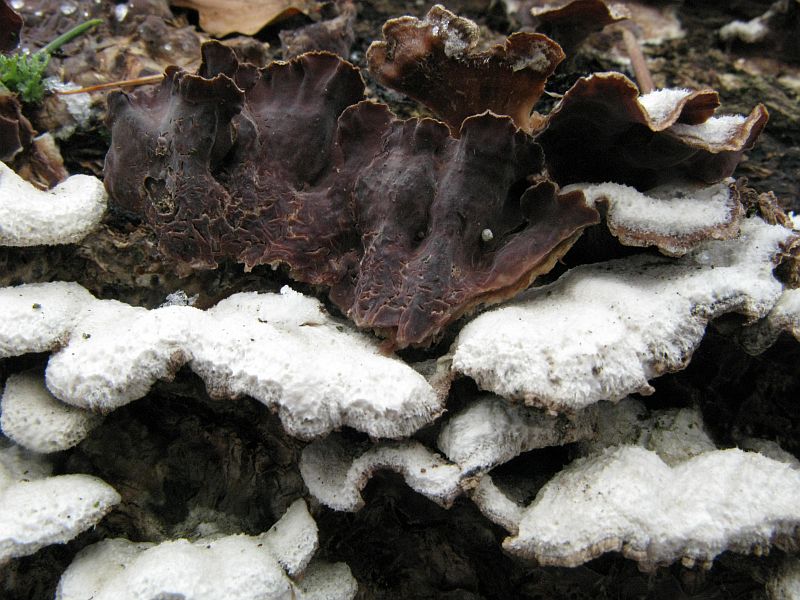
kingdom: Fungi
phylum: Basidiomycota
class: Agaricomycetes
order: Agaricales
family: Cyphellaceae
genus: Chondrostereum
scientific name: Chondrostereum purpureum
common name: purpurlædersvamp
